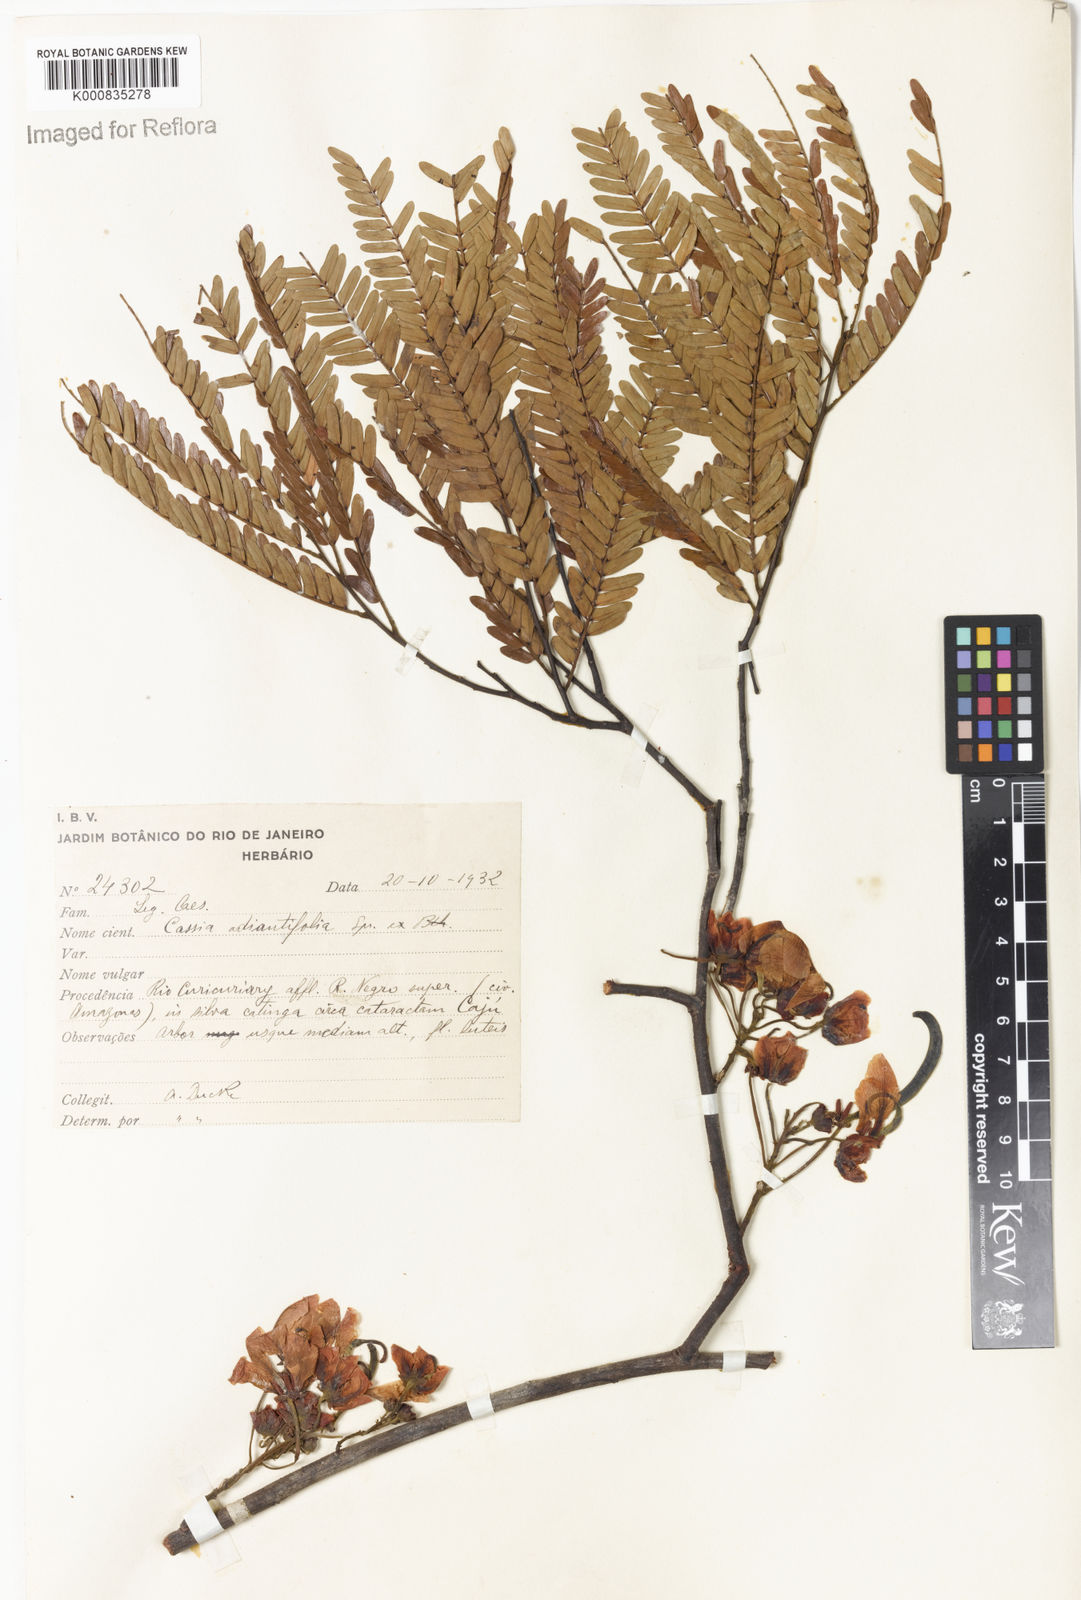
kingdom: Plantae
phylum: Tracheophyta
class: Magnoliopsida
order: Fabales
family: Fabaceae
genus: Chamaecrista
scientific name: Chamaecrista adiantifolia
